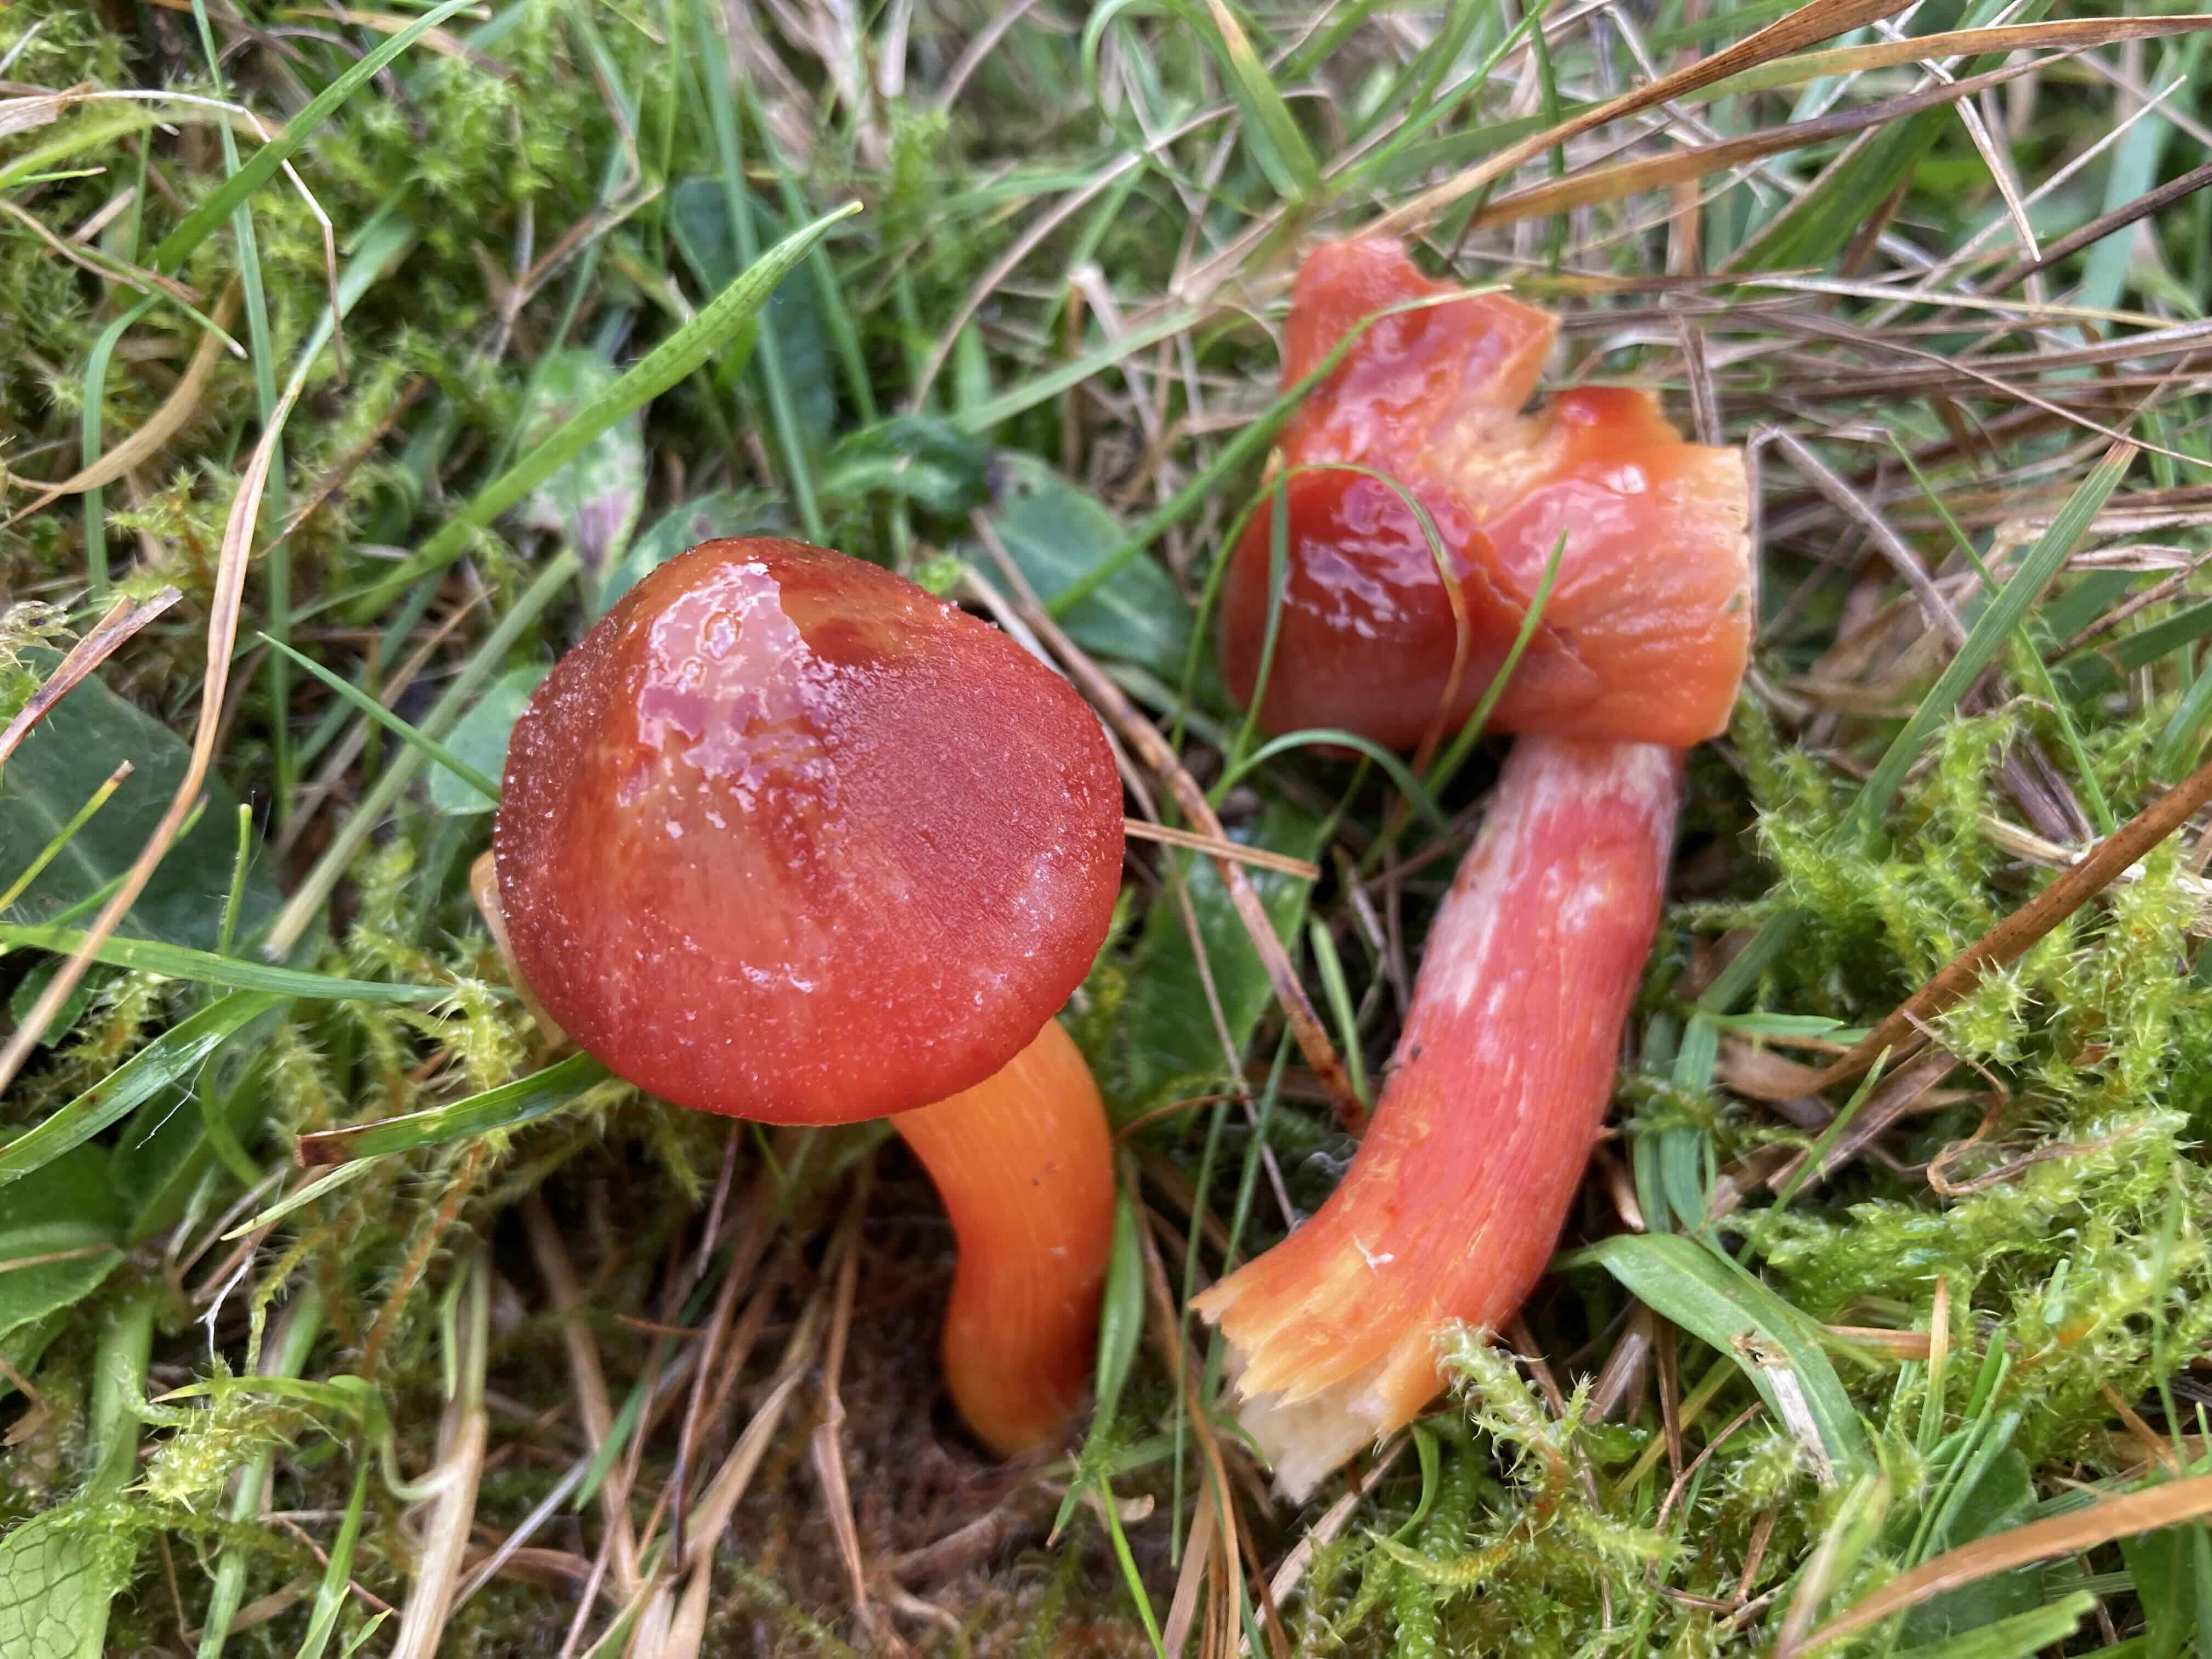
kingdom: Fungi
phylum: Basidiomycota
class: Agaricomycetes
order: Agaricales
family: Hygrophoraceae
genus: Hygrocybe
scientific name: Hygrocybe punicea
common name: skarlagen-vokshat
